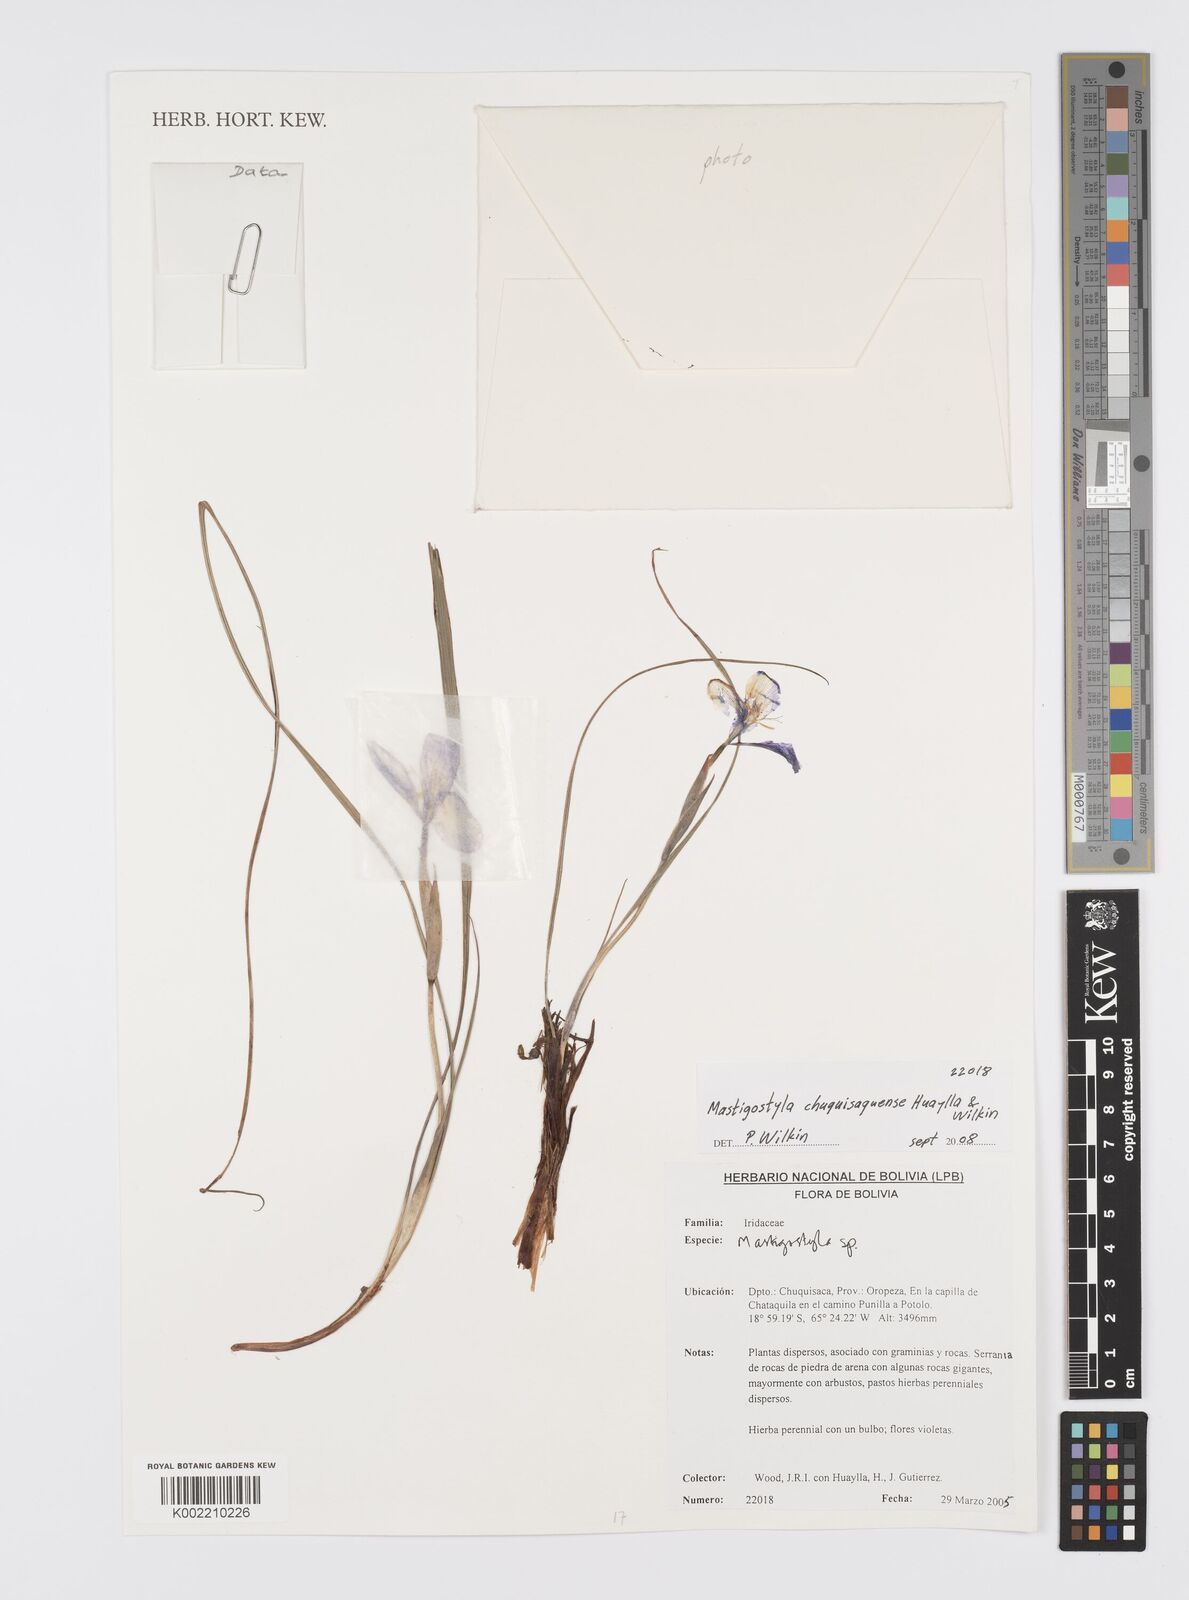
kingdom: Plantae
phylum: Tracheophyta
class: Liliopsida
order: Asparagales
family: Iridaceae
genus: Mastigostyla
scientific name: Mastigostyla chuquisacensis
